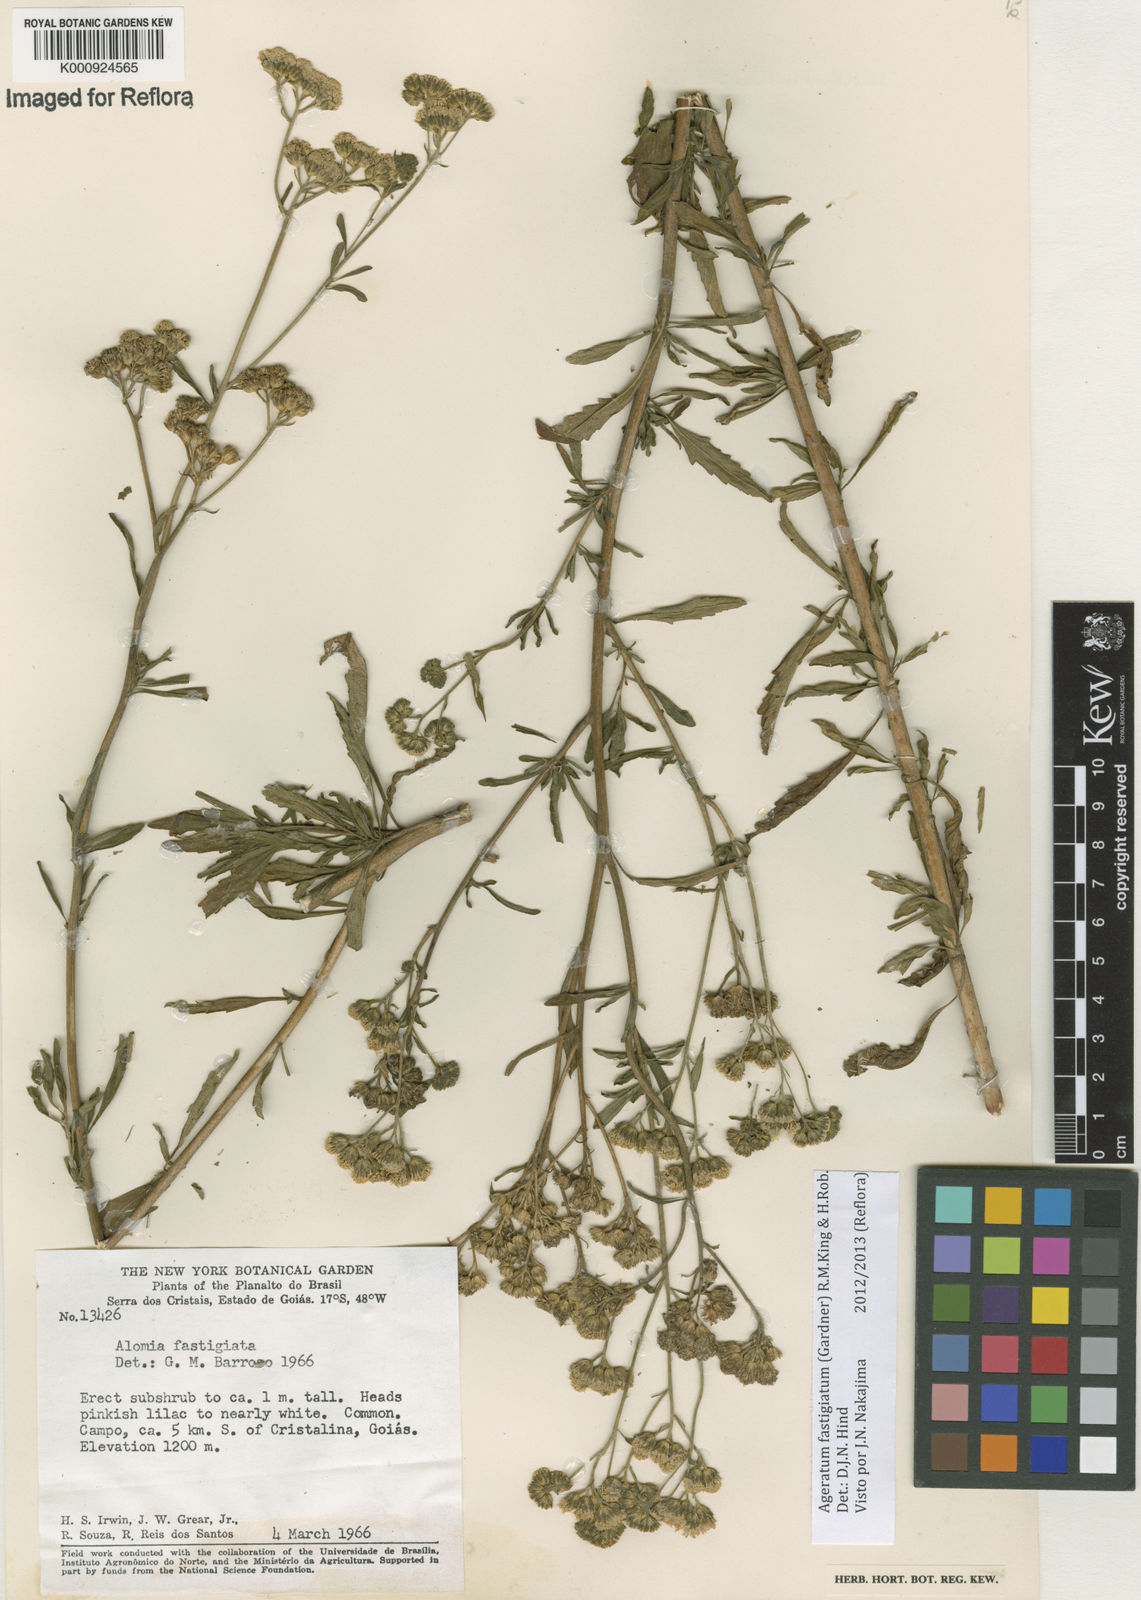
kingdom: Plantae
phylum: Tracheophyta
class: Magnoliopsida
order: Asterales
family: Asteraceae
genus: Ageratum
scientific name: Ageratum fastigiatum
